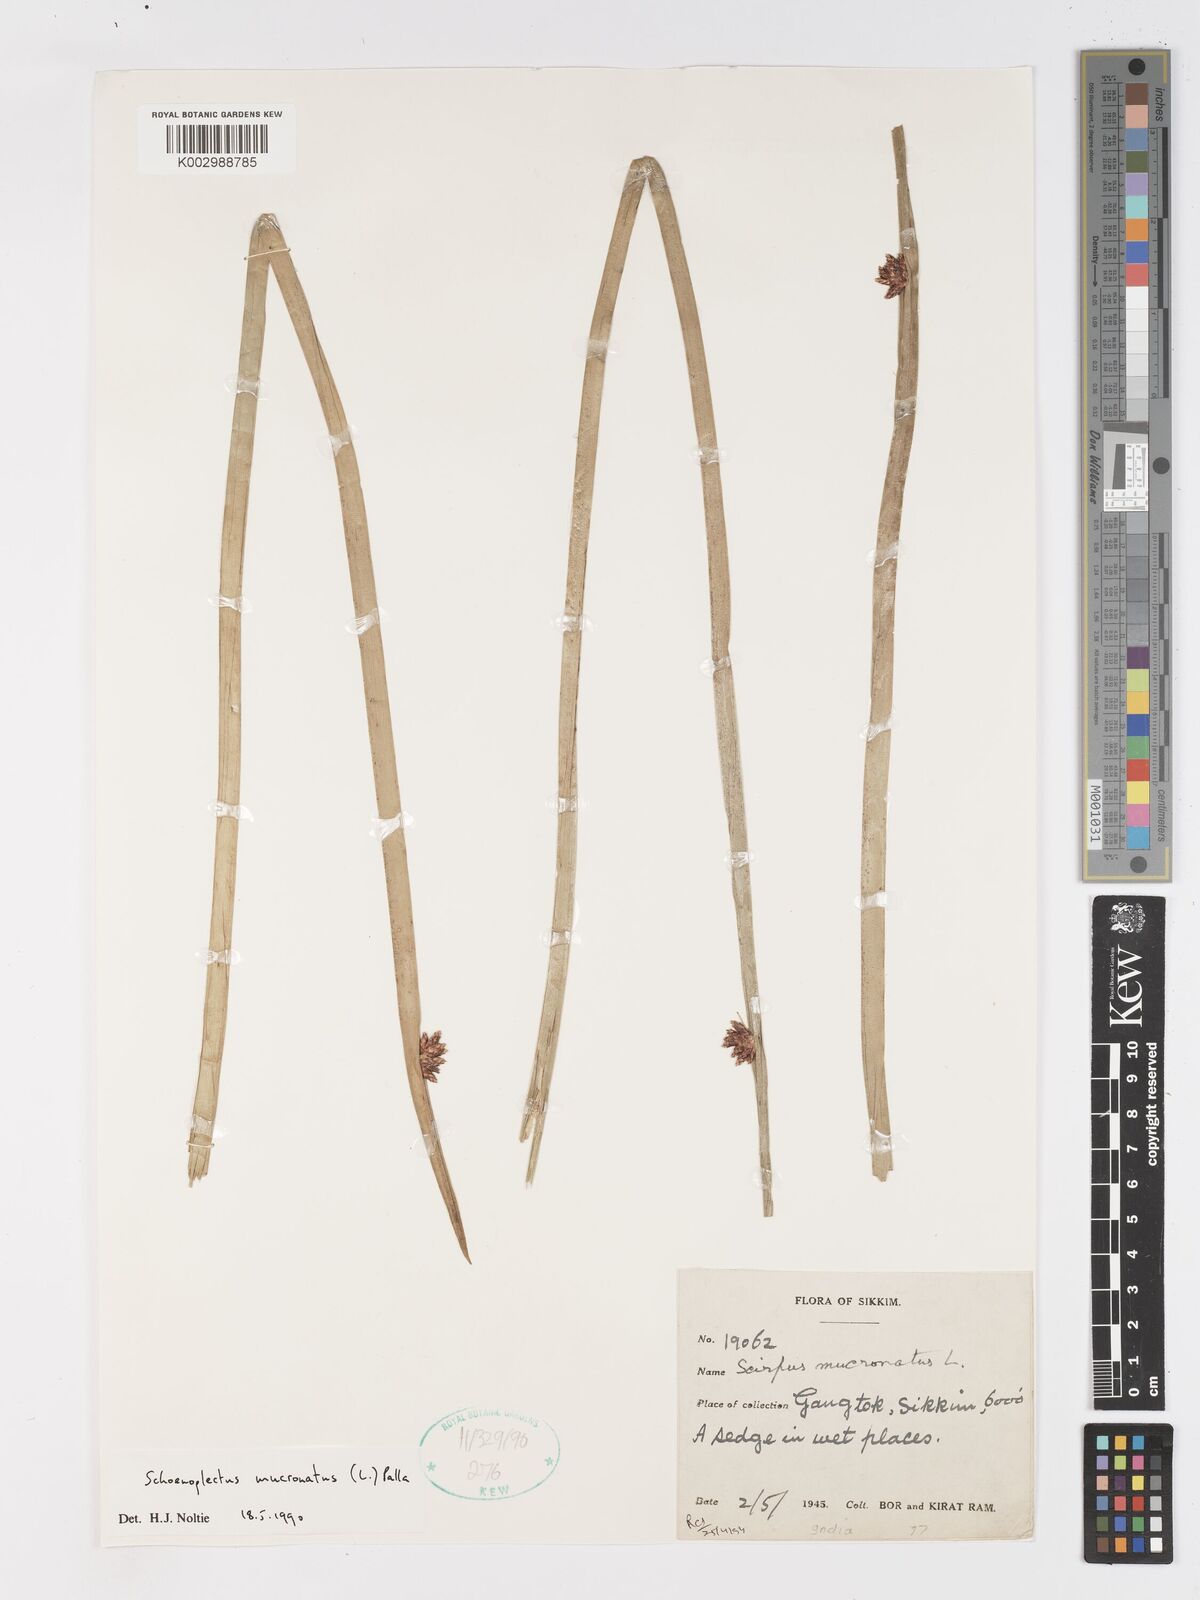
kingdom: Plantae
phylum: Tracheophyta
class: Liliopsida
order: Poales
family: Cyperaceae
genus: Schoenoplectiella
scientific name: Schoenoplectiella mucronata
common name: Bog bulrush
